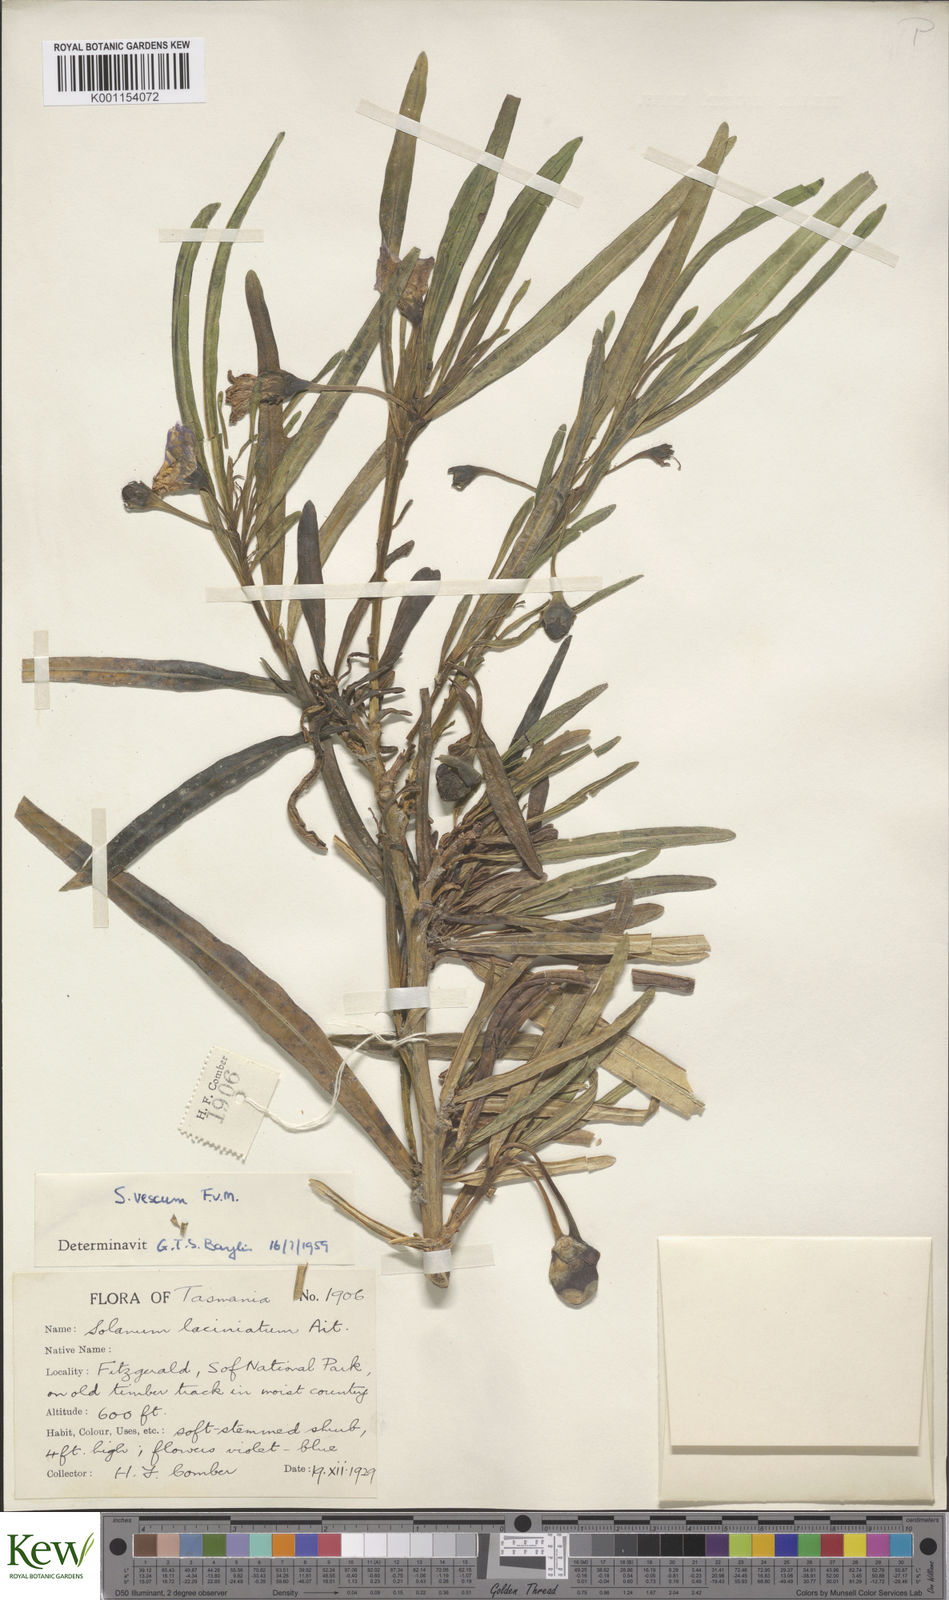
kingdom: Plantae
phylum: Tracheophyta
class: Magnoliopsida
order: Solanales
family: Solanaceae
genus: Solanum
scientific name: Solanum vescum
